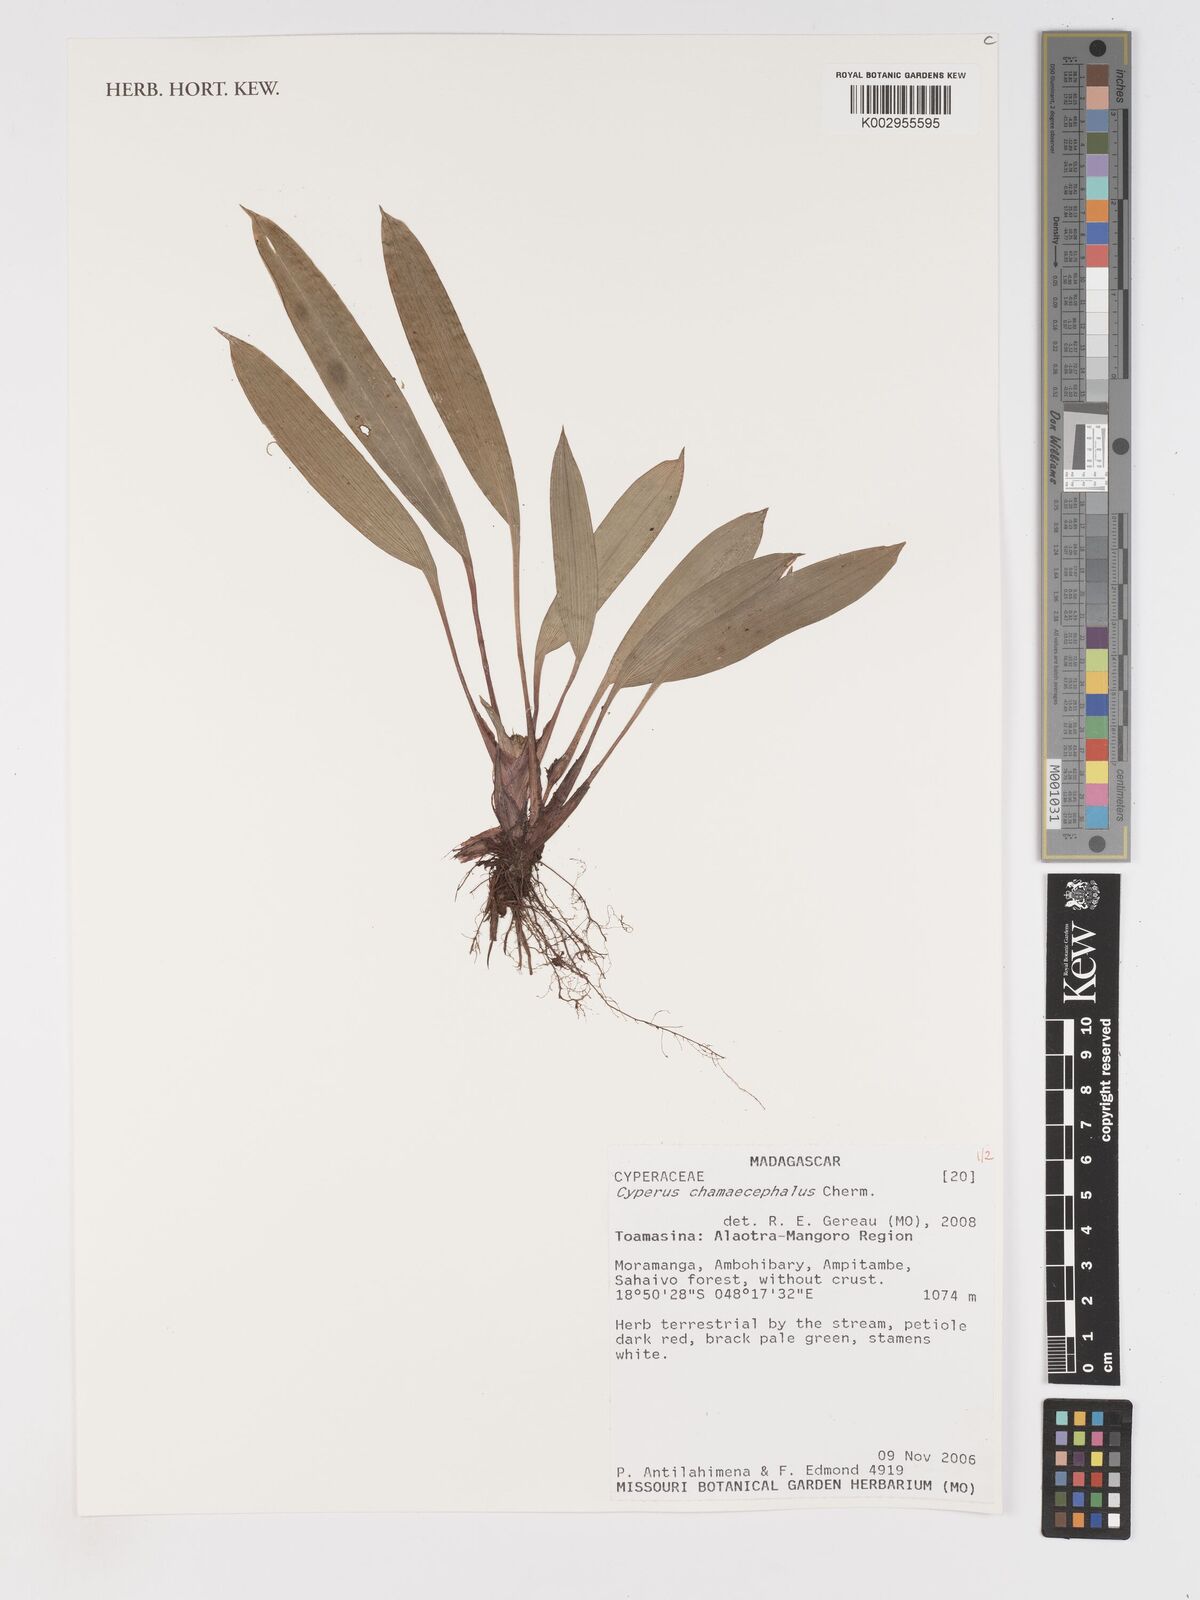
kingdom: Plantae
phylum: Tracheophyta
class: Liliopsida
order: Poales
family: Cyperaceae
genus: Cyperus
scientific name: Cyperus chamaecephalus
